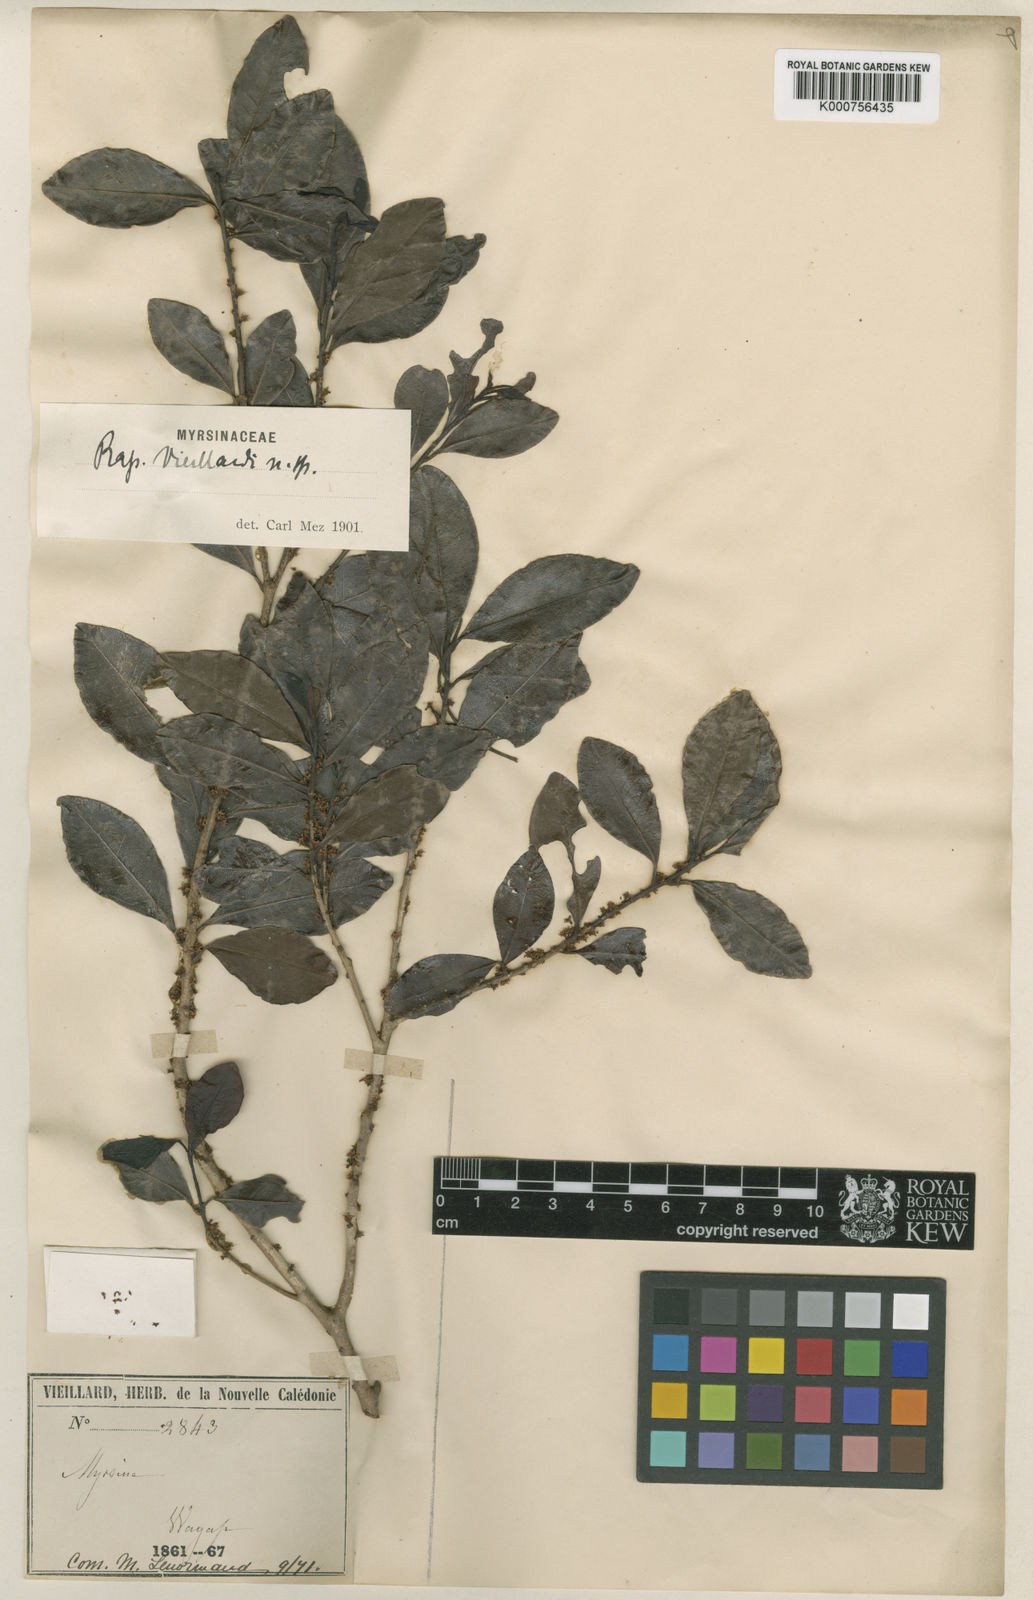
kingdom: Plantae
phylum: Tracheophyta
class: Magnoliopsida
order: Ericales
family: Primulaceae
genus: Myrsine
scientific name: Myrsine
